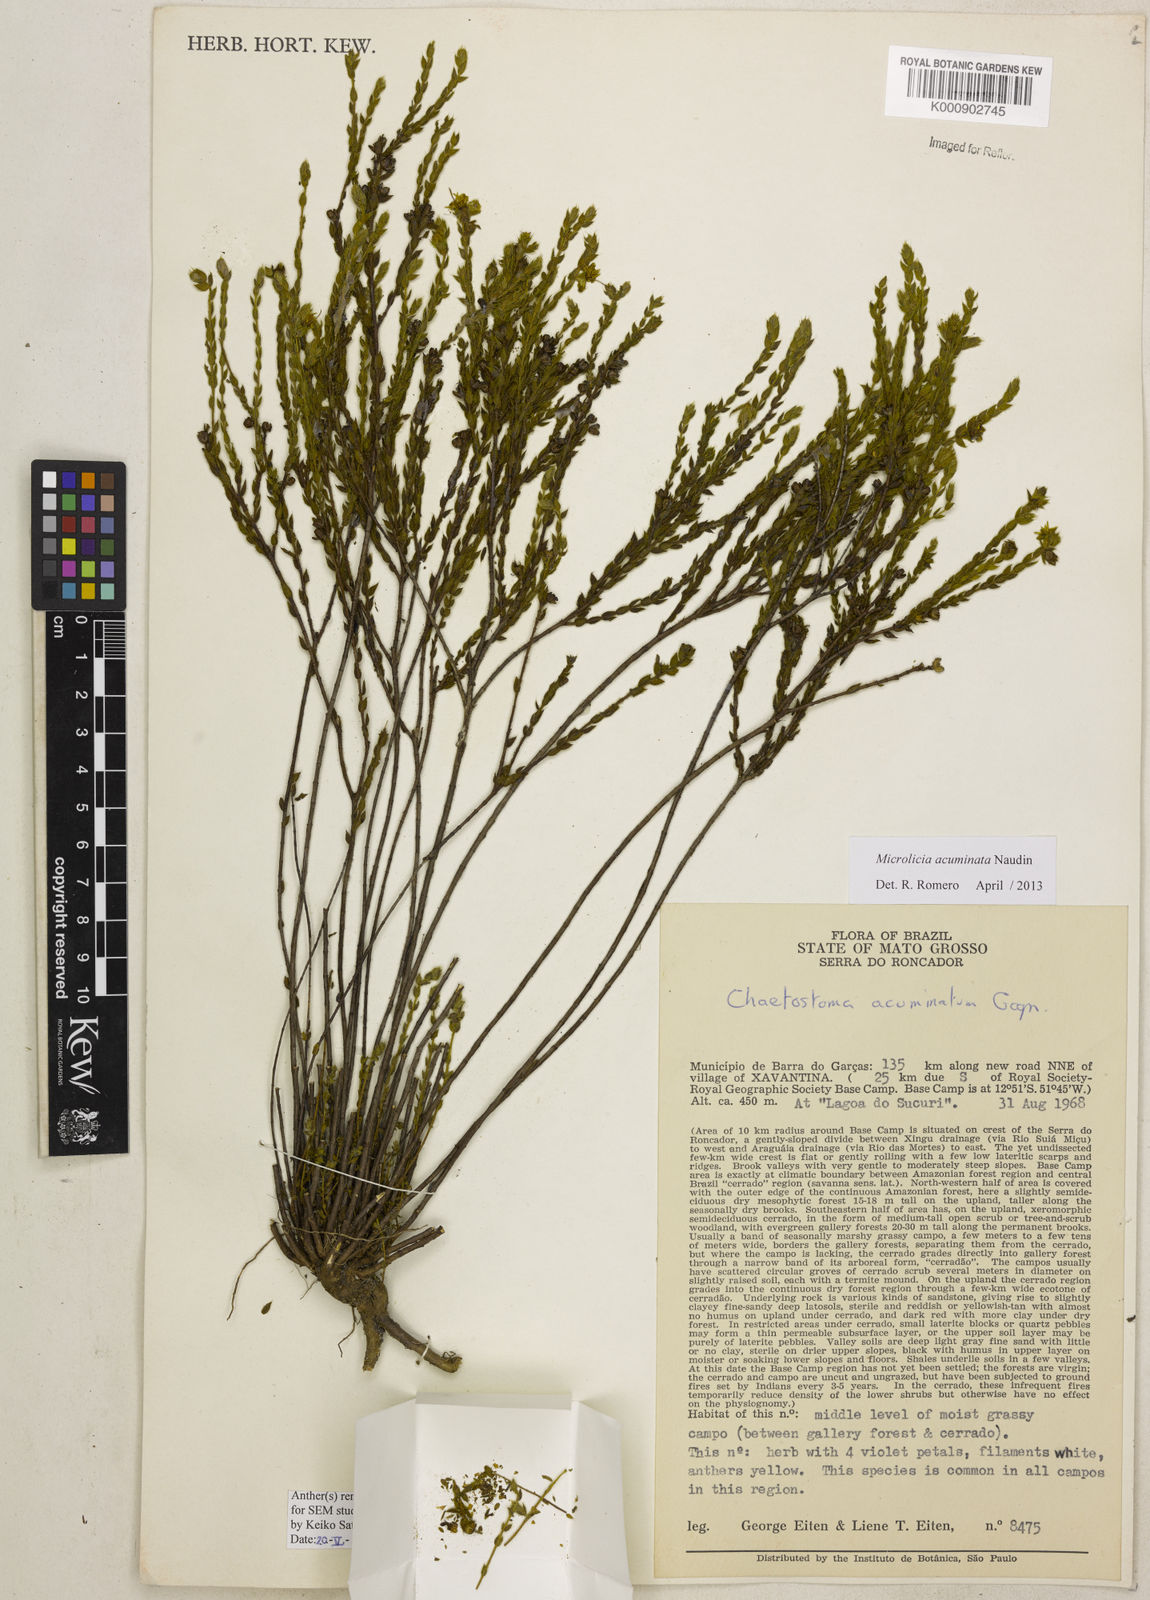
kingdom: Plantae
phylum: Tracheophyta
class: Magnoliopsida
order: Myrtales
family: Melastomataceae
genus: Microlicia
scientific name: Microlicia
